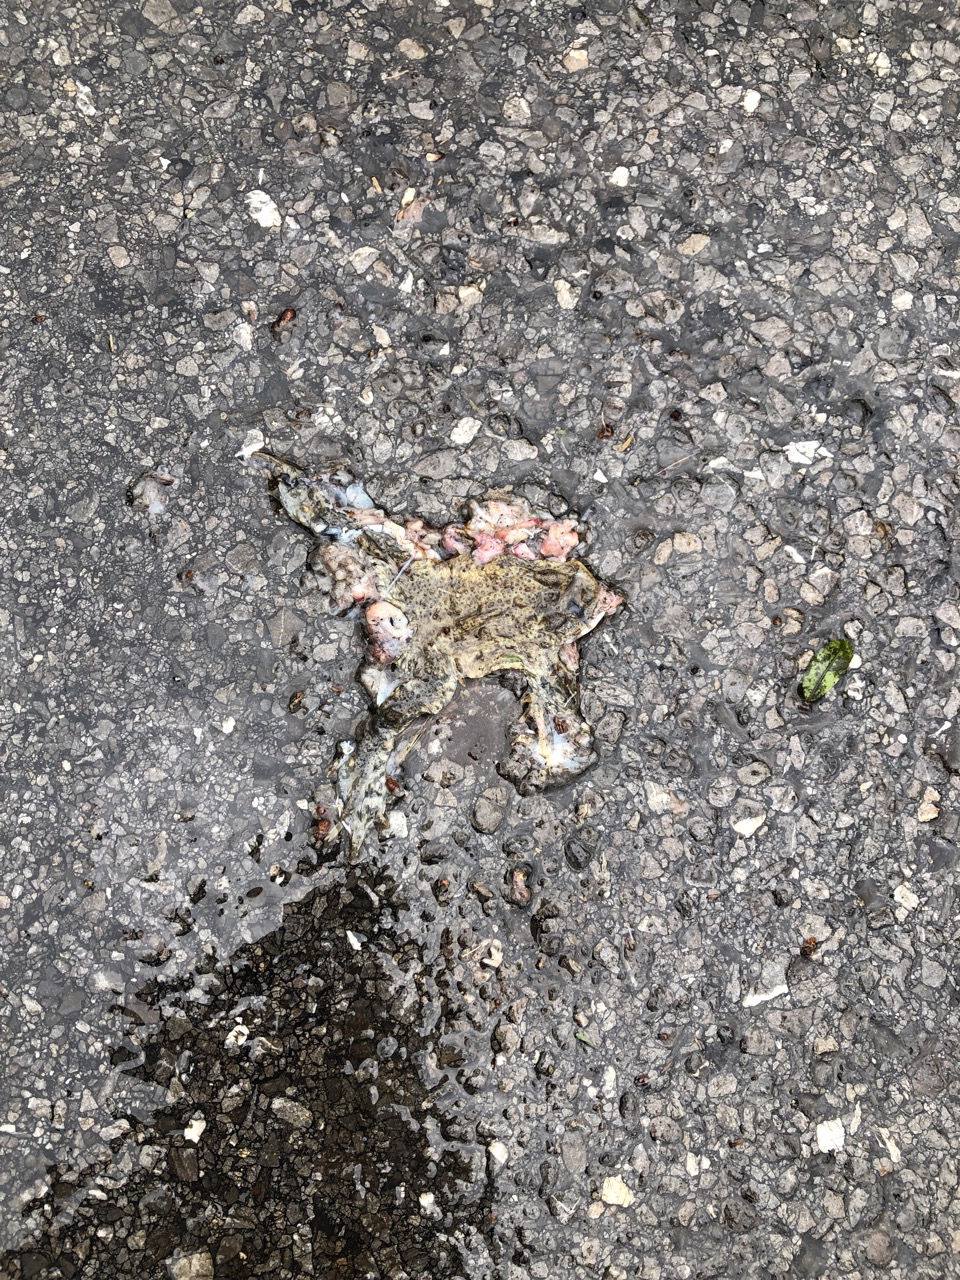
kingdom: Animalia
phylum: Chordata
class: Amphibia
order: Anura
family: Bufonidae
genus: Bufo
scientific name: Bufo bufo
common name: Common toad
